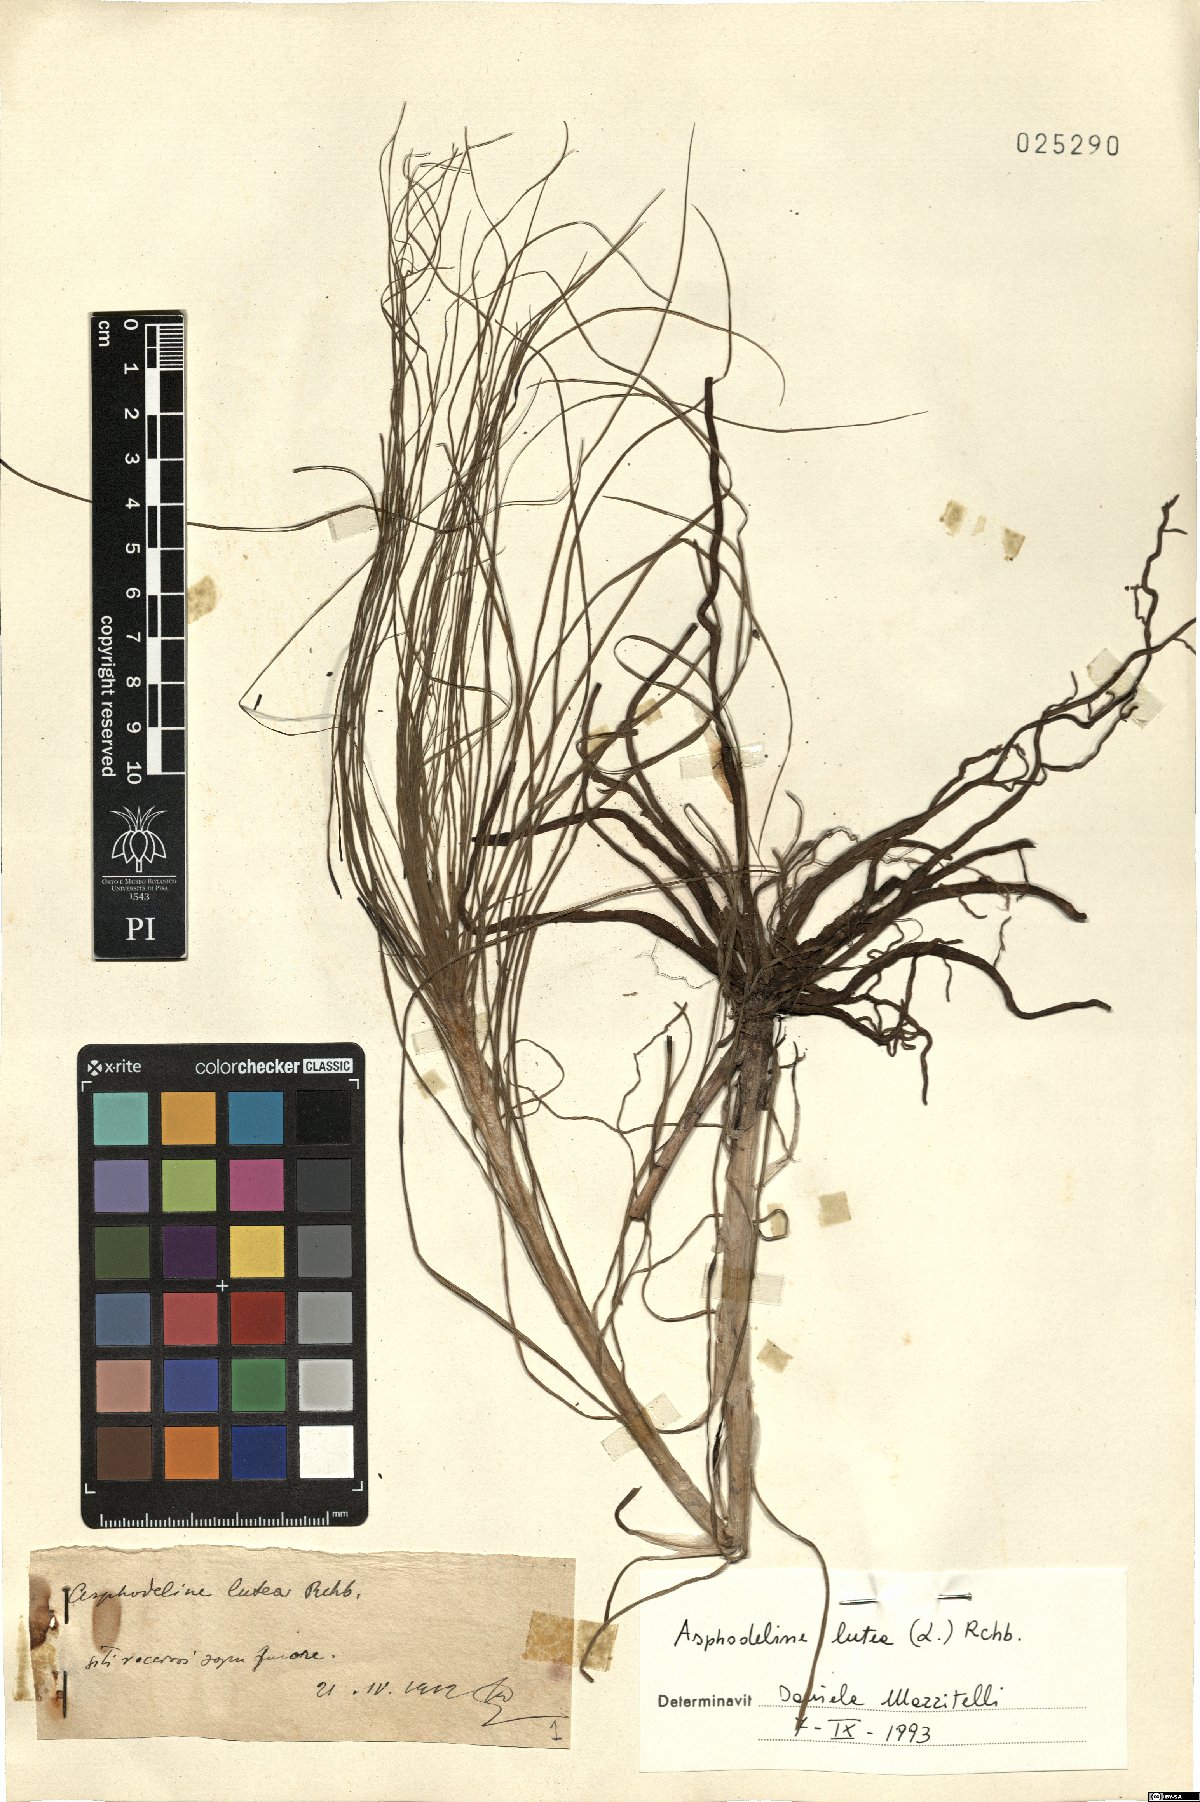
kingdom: Plantae
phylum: Tracheophyta
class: Liliopsida
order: Asparagales
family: Asphodelaceae
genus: Asphodeline
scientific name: Asphodeline lutea
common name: Yellow asphodel
